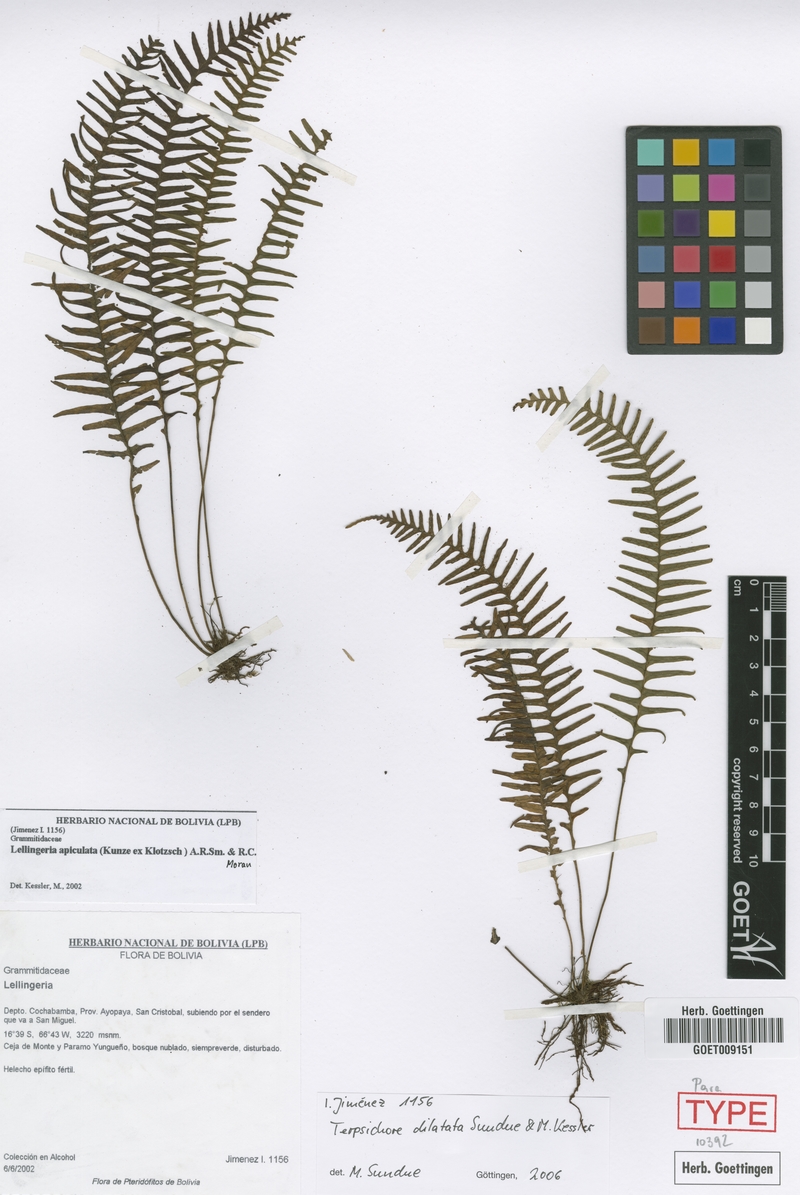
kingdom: Plantae
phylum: Tracheophyta
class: Polypodiopsida
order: Polypodiales
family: Polypodiaceae
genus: Ascogrammitis
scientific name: Ascogrammitis dilatata
